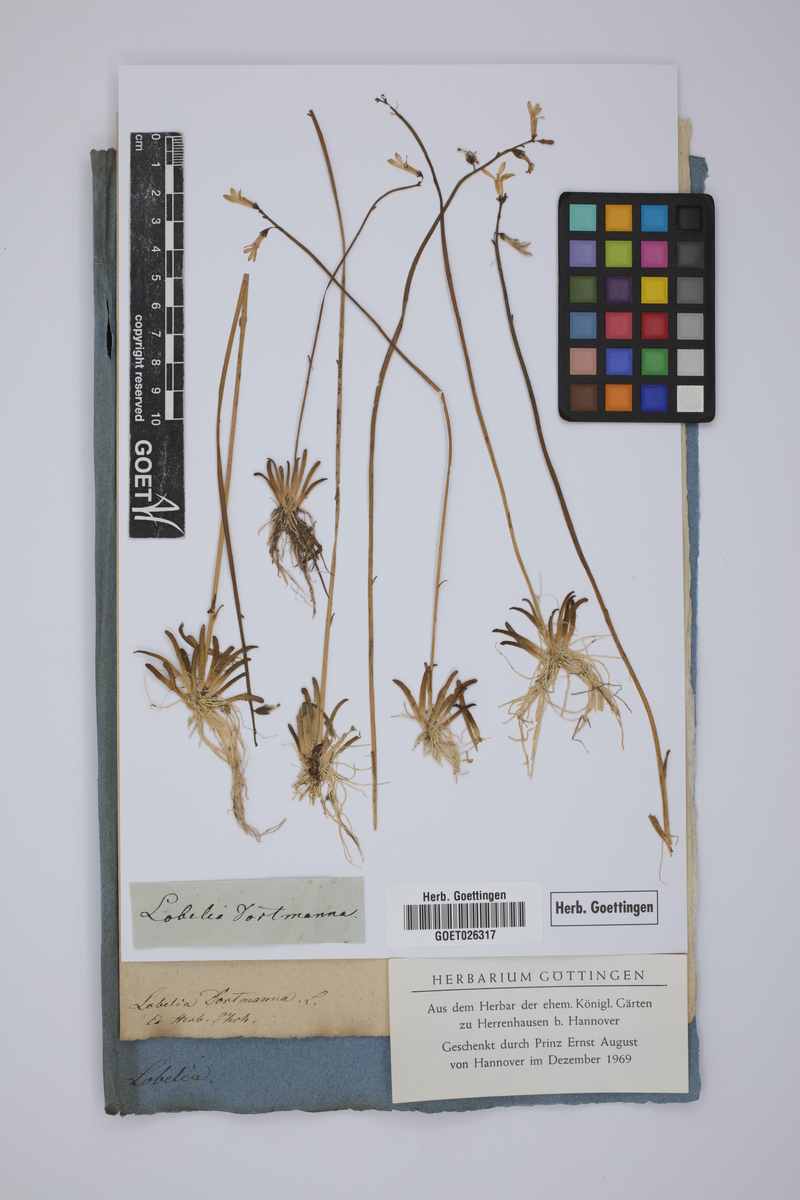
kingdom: Plantae
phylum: Tracheophyta
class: Magnoliopsida
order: Asterales
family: Campanulaceae
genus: Lobelia
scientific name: Lobelia dortmanna
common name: Water lobelia
